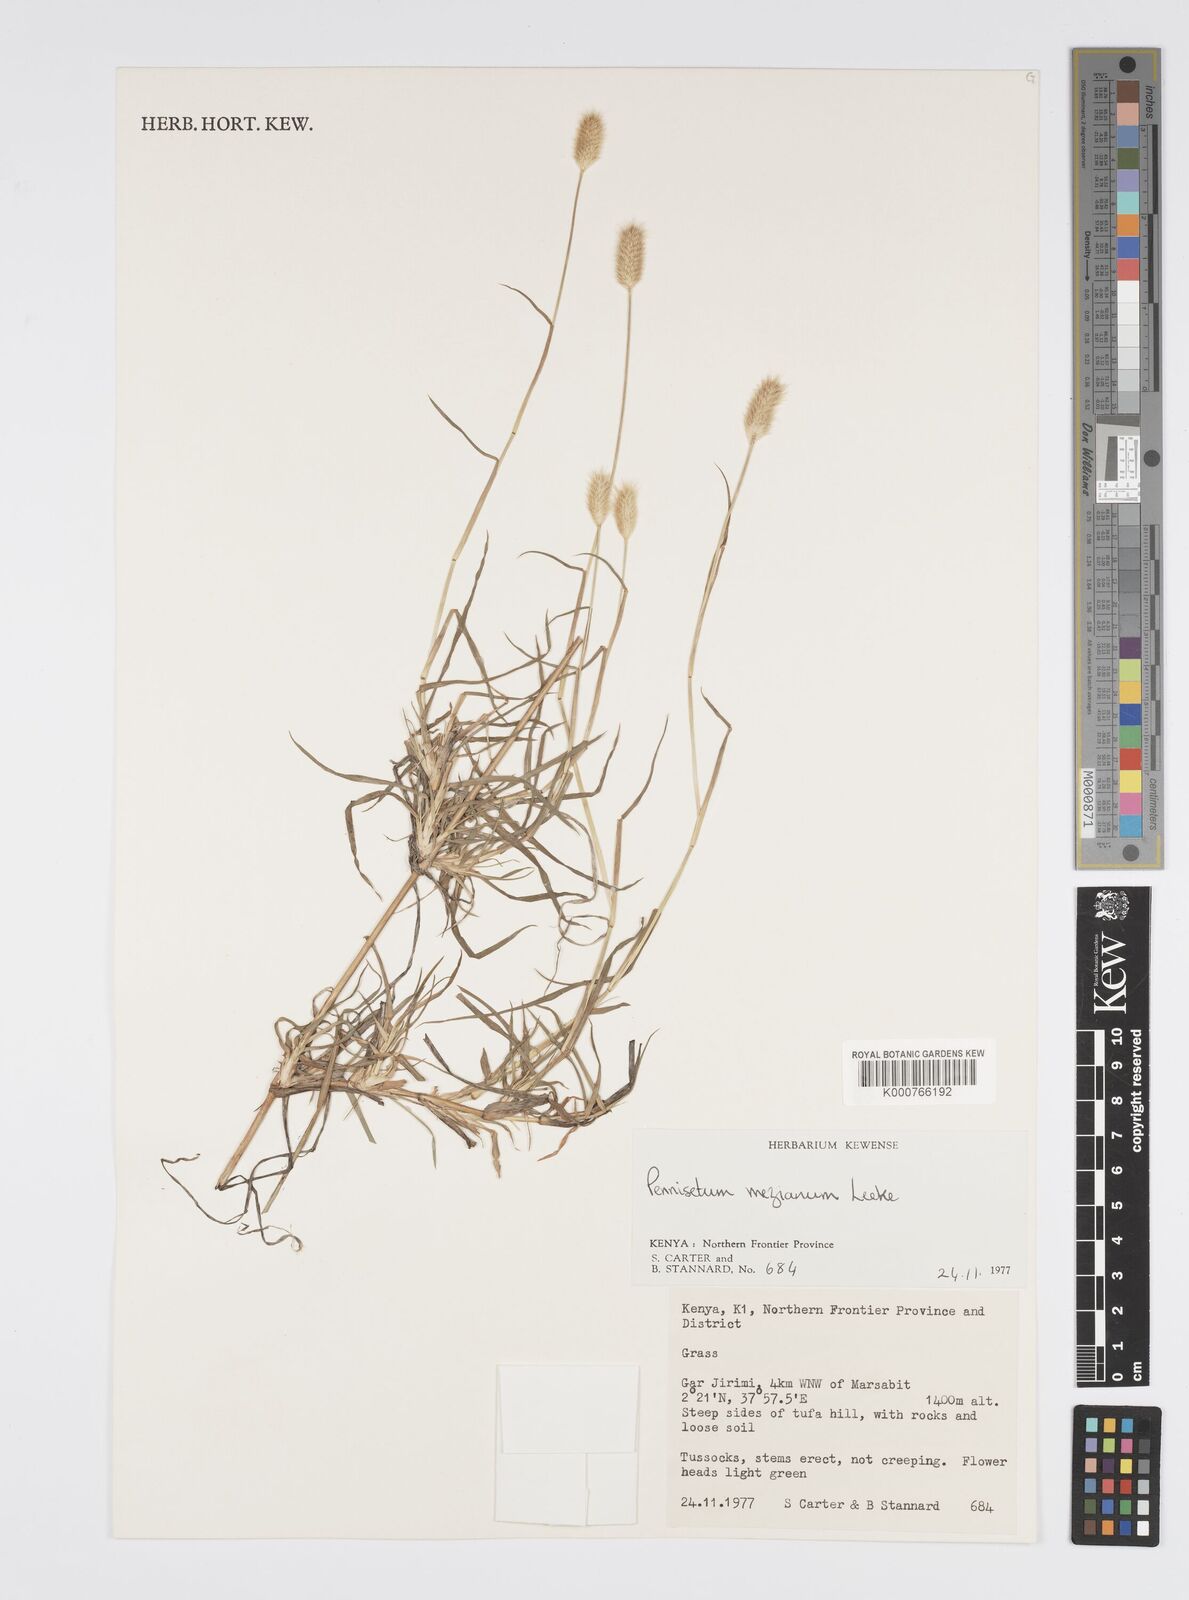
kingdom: Plantae
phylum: Tracheophyta
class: Liliopsida
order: Poales
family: Poaceae
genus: Cenchrus
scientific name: Cenchrus mezianus
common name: Bamboo grass
